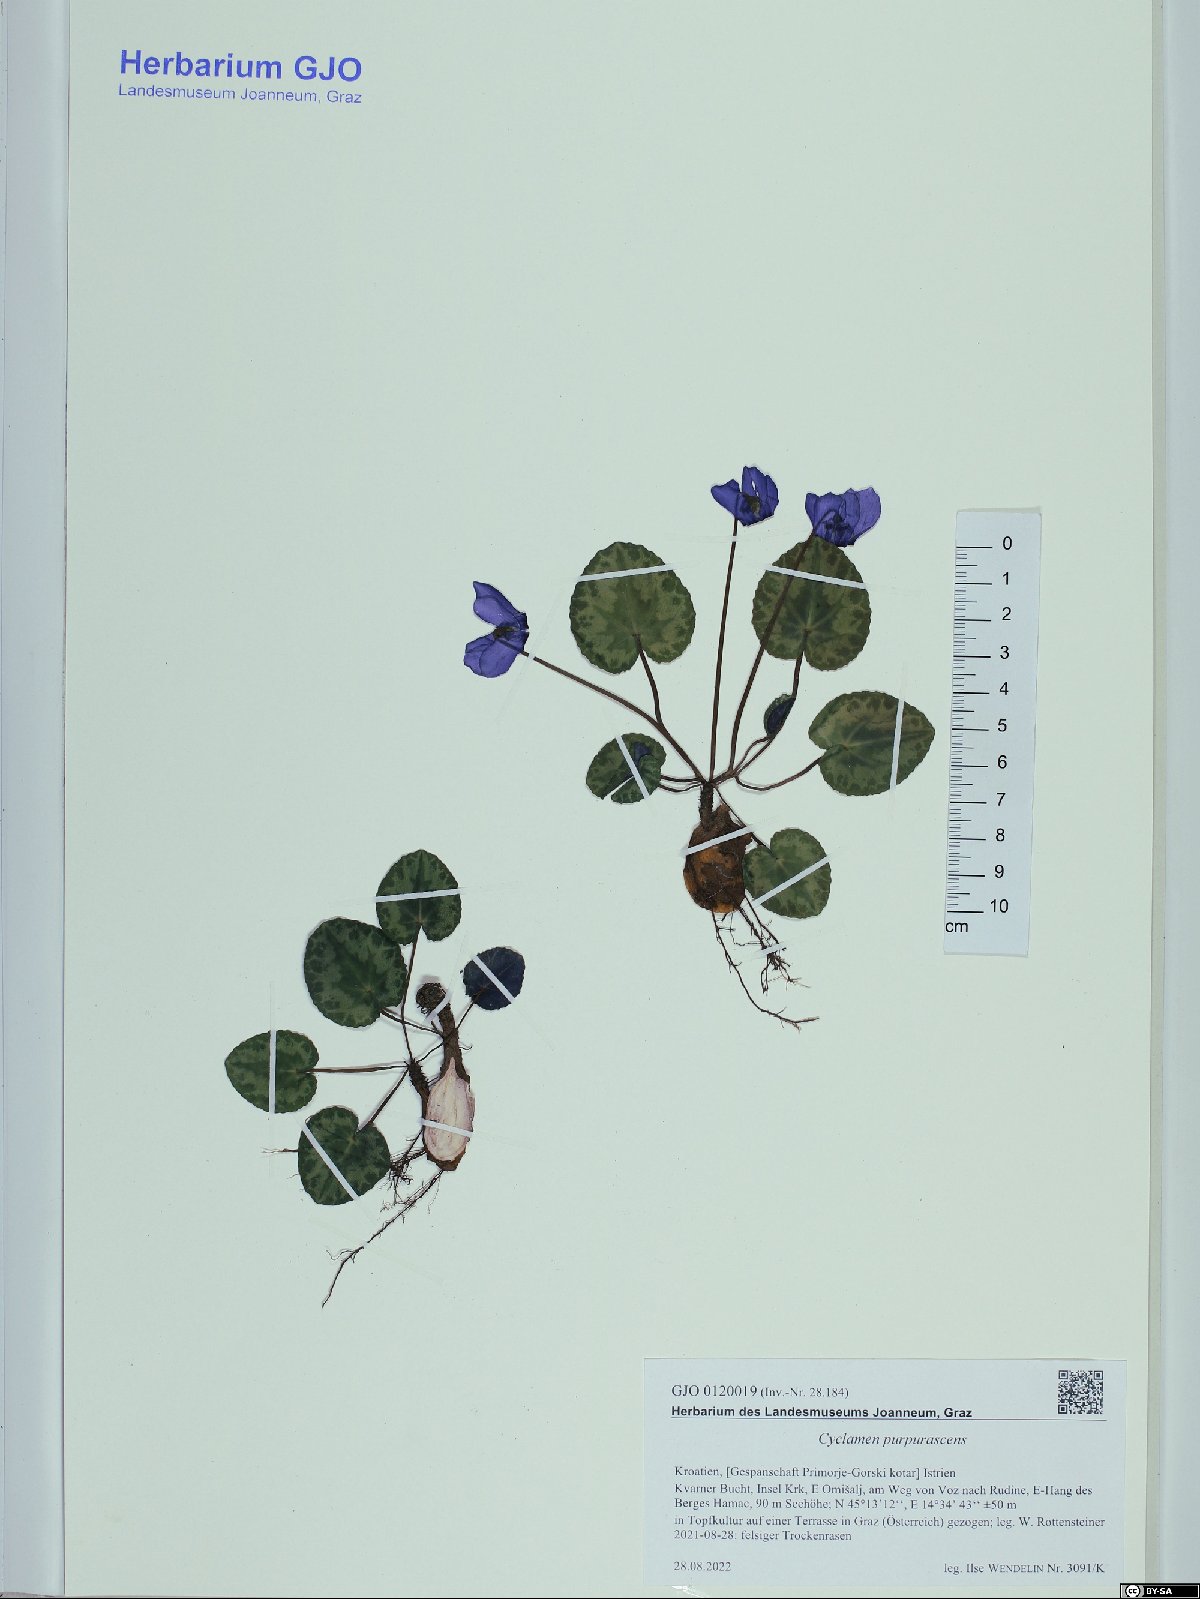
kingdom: Plantae
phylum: Tracheophyta
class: Magnoliopsida
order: Ericales
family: Primulaceae
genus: Cyclamen
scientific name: Cyclamen purpurascens
